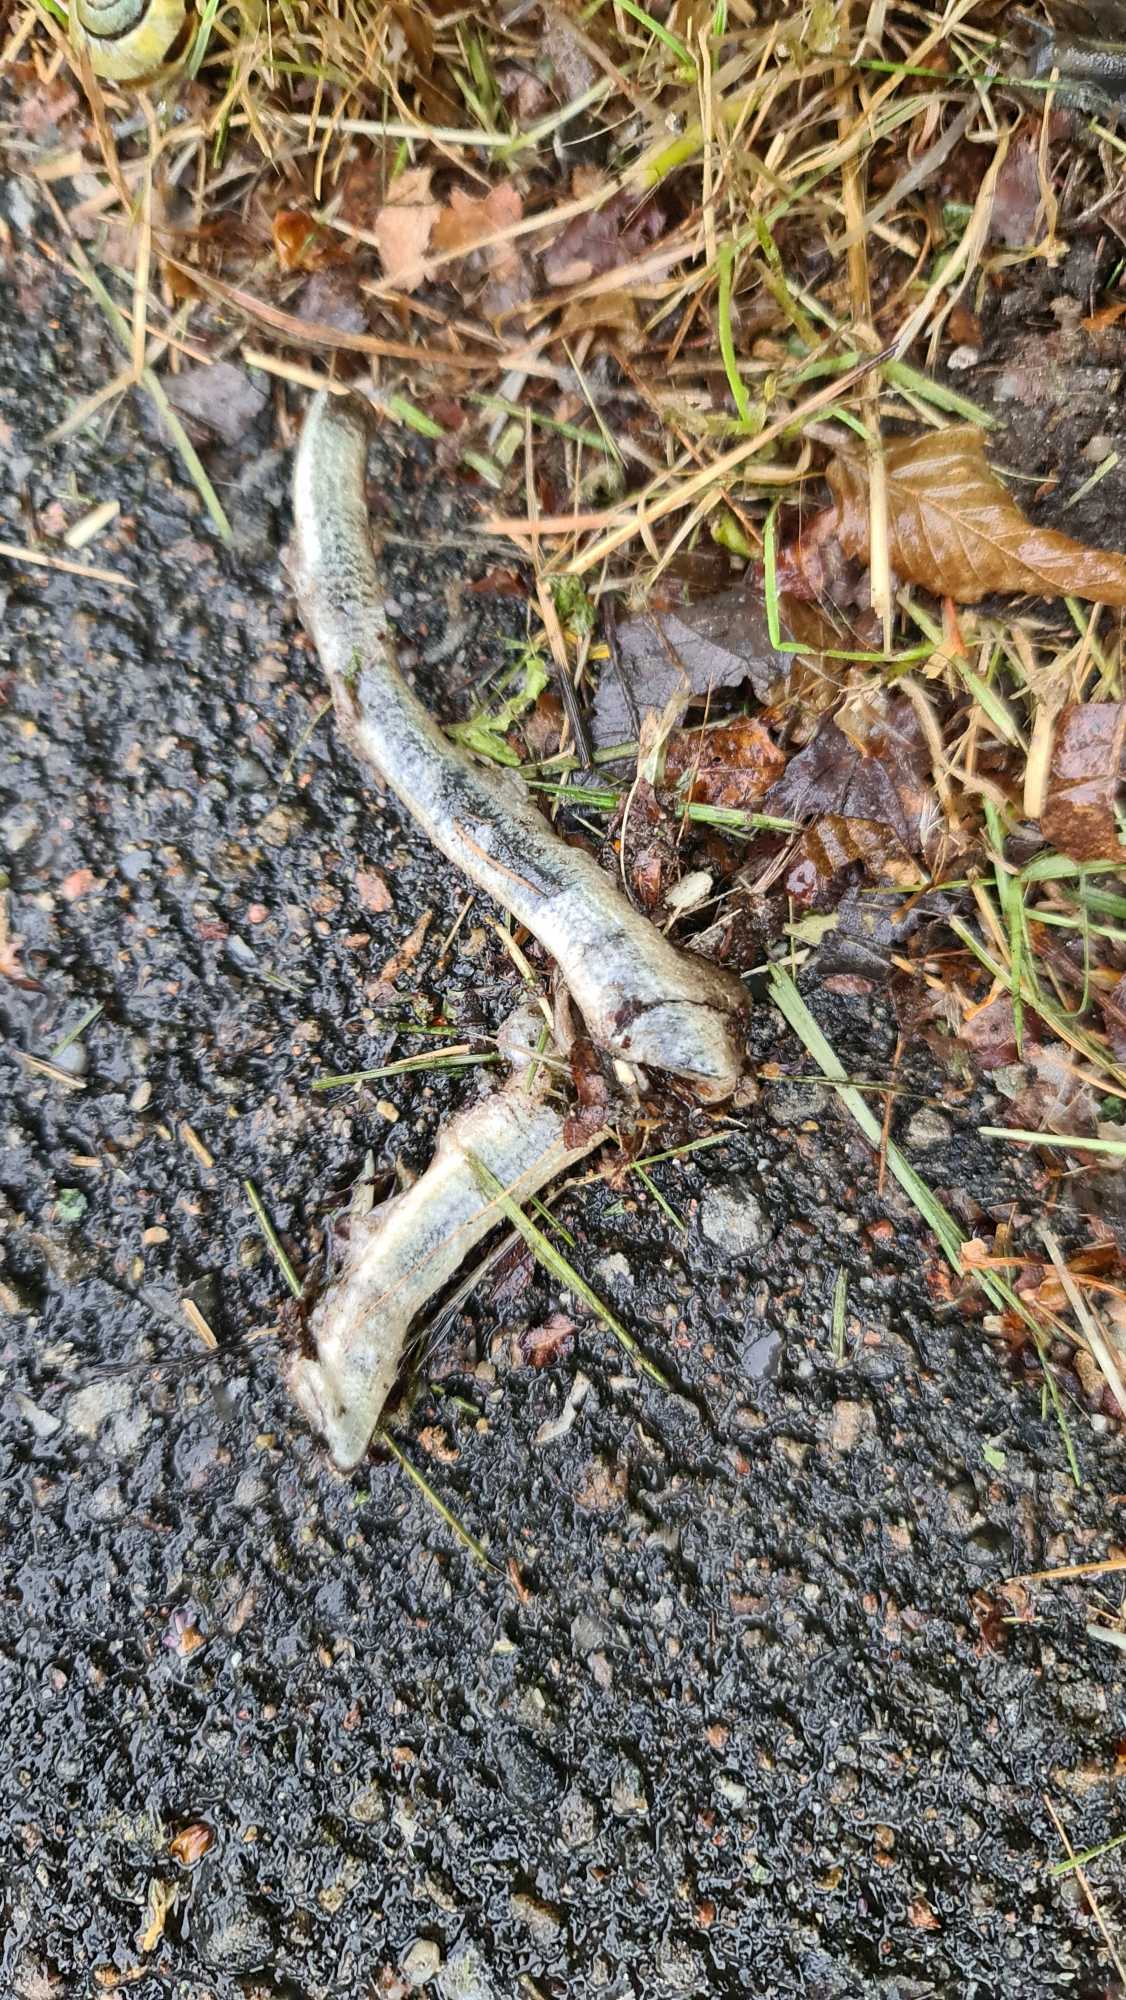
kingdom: Animalia
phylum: Chordata
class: Squamata
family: Anguidae
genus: Anguis
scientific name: Anguis fragilis
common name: Stålorm
